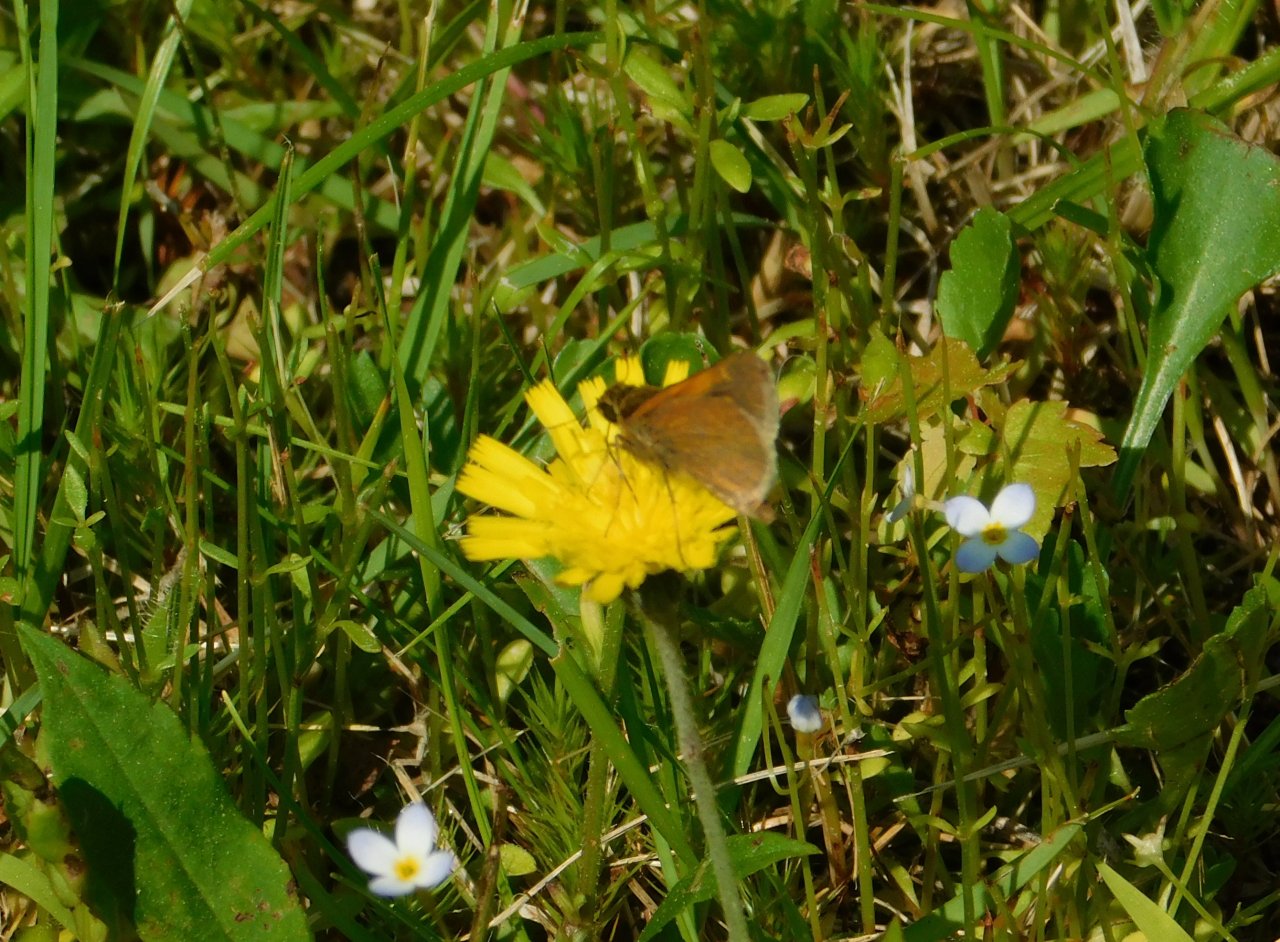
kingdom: Animalia
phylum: Arthropoda
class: Insecta
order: Lepidoptera
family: Hesperiidae
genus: Polites
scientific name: Polites themistocles
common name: Tawny-edged Skipper
